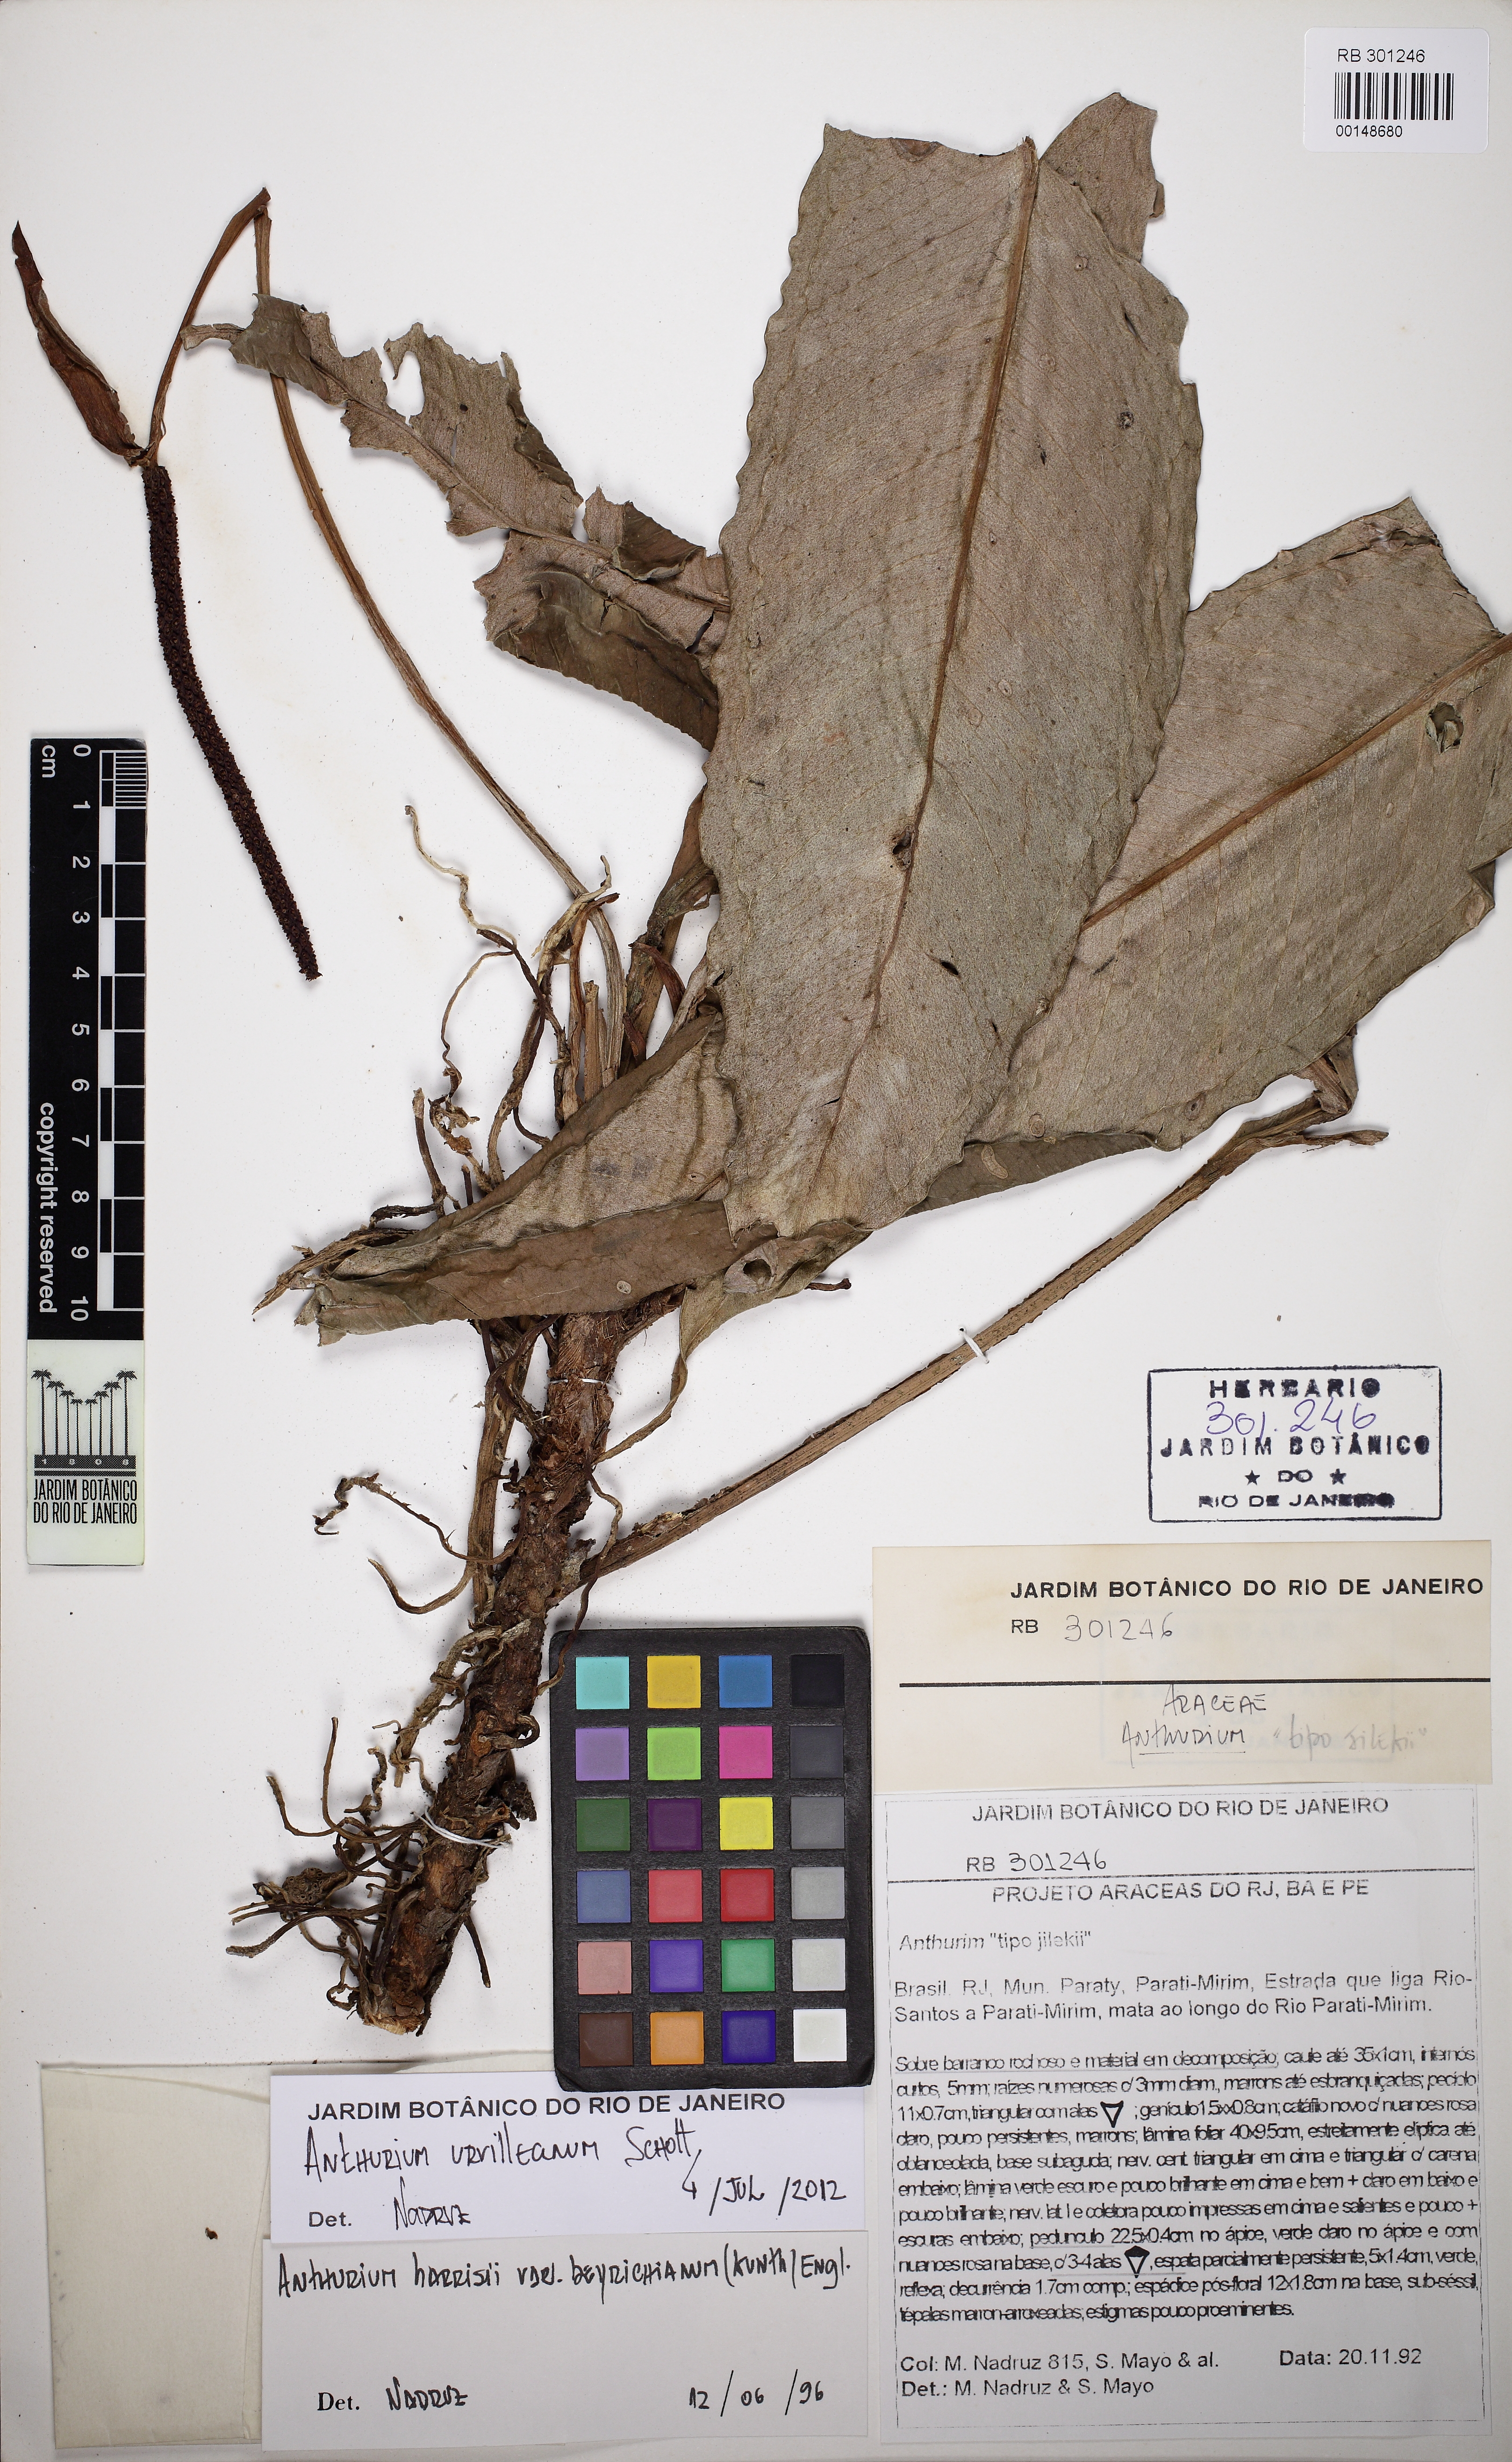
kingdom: Plantae
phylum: Tracheophyta
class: Liliopsida
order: Alismatales
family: Araceae
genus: Anthurium
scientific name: Anthurium urvilleanum
